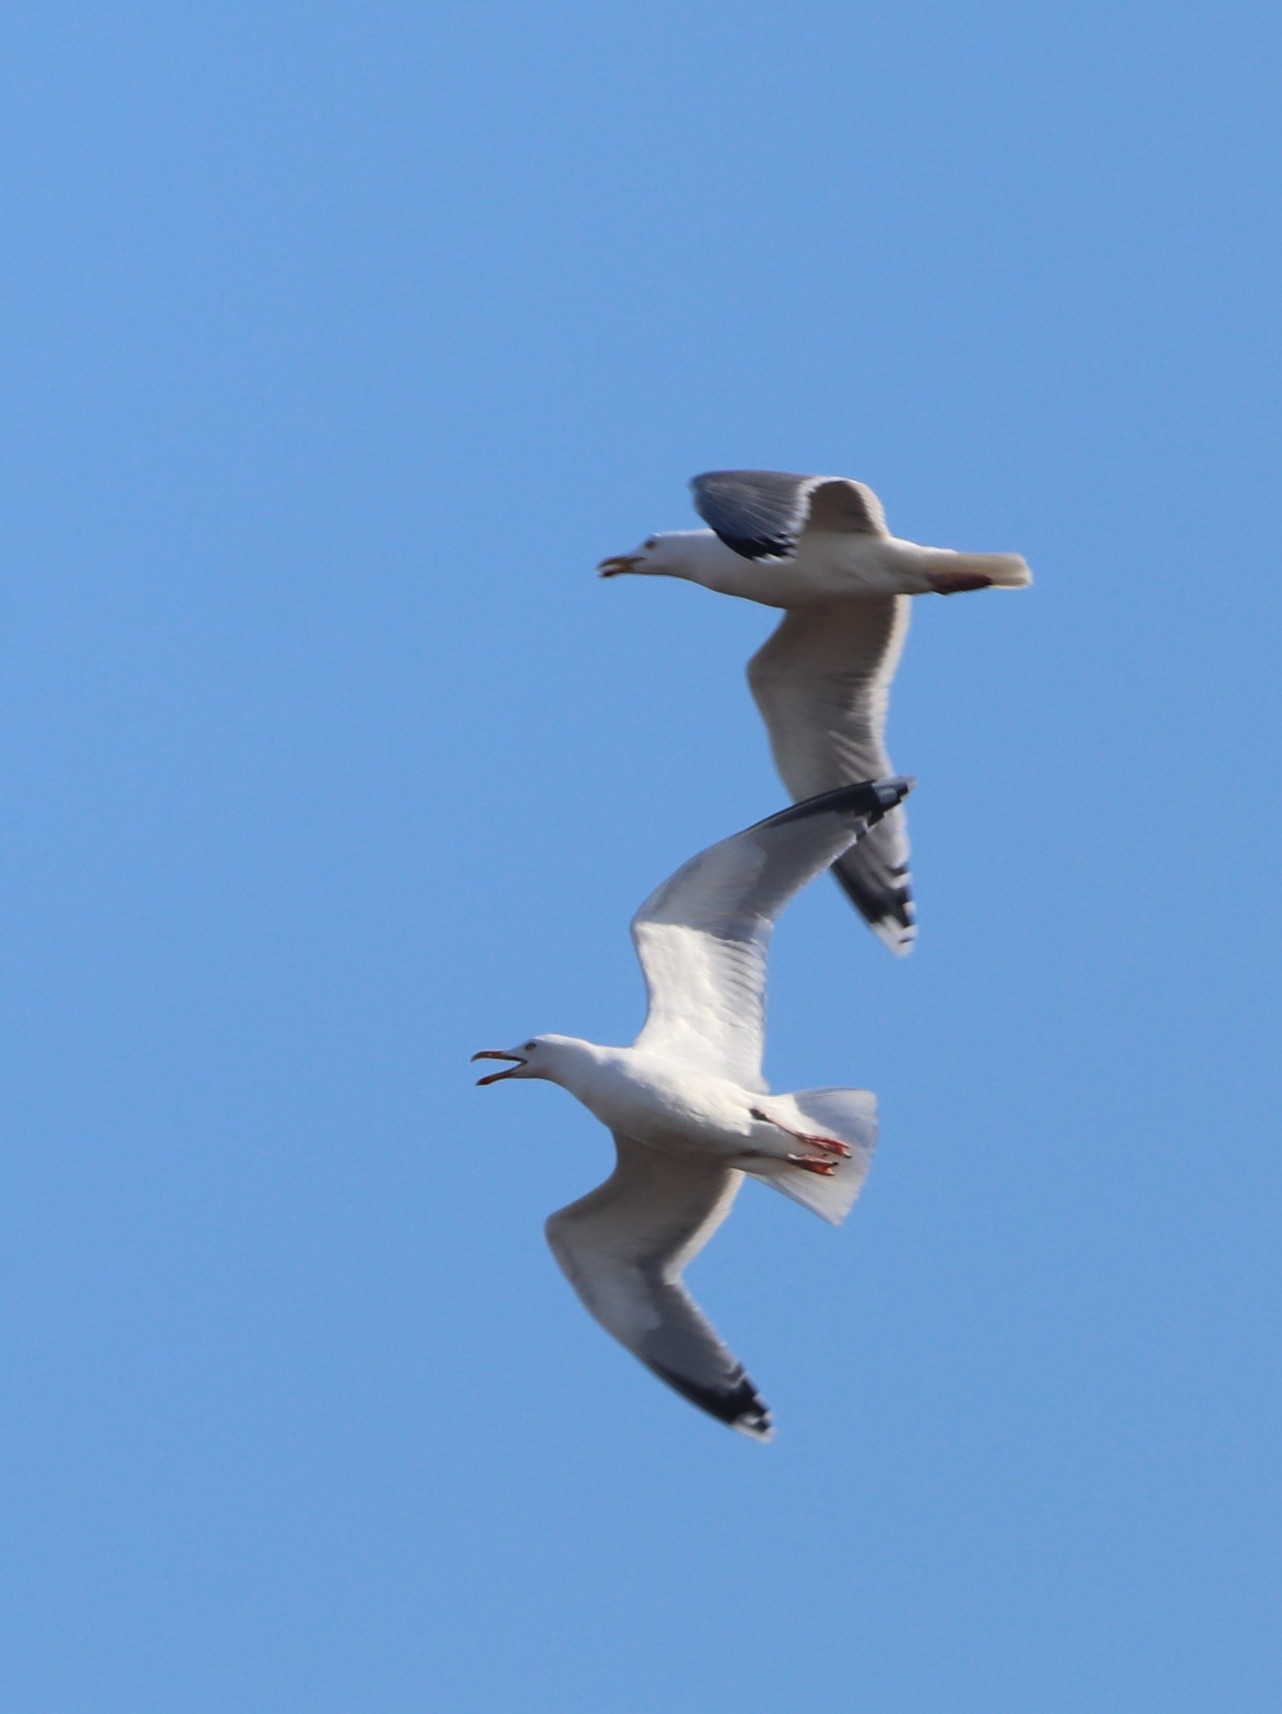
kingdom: Animalia
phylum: Chordata
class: Aves
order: Charadriiformes
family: Laridae
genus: Larus
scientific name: Larus argentatus
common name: Sølvmåge
